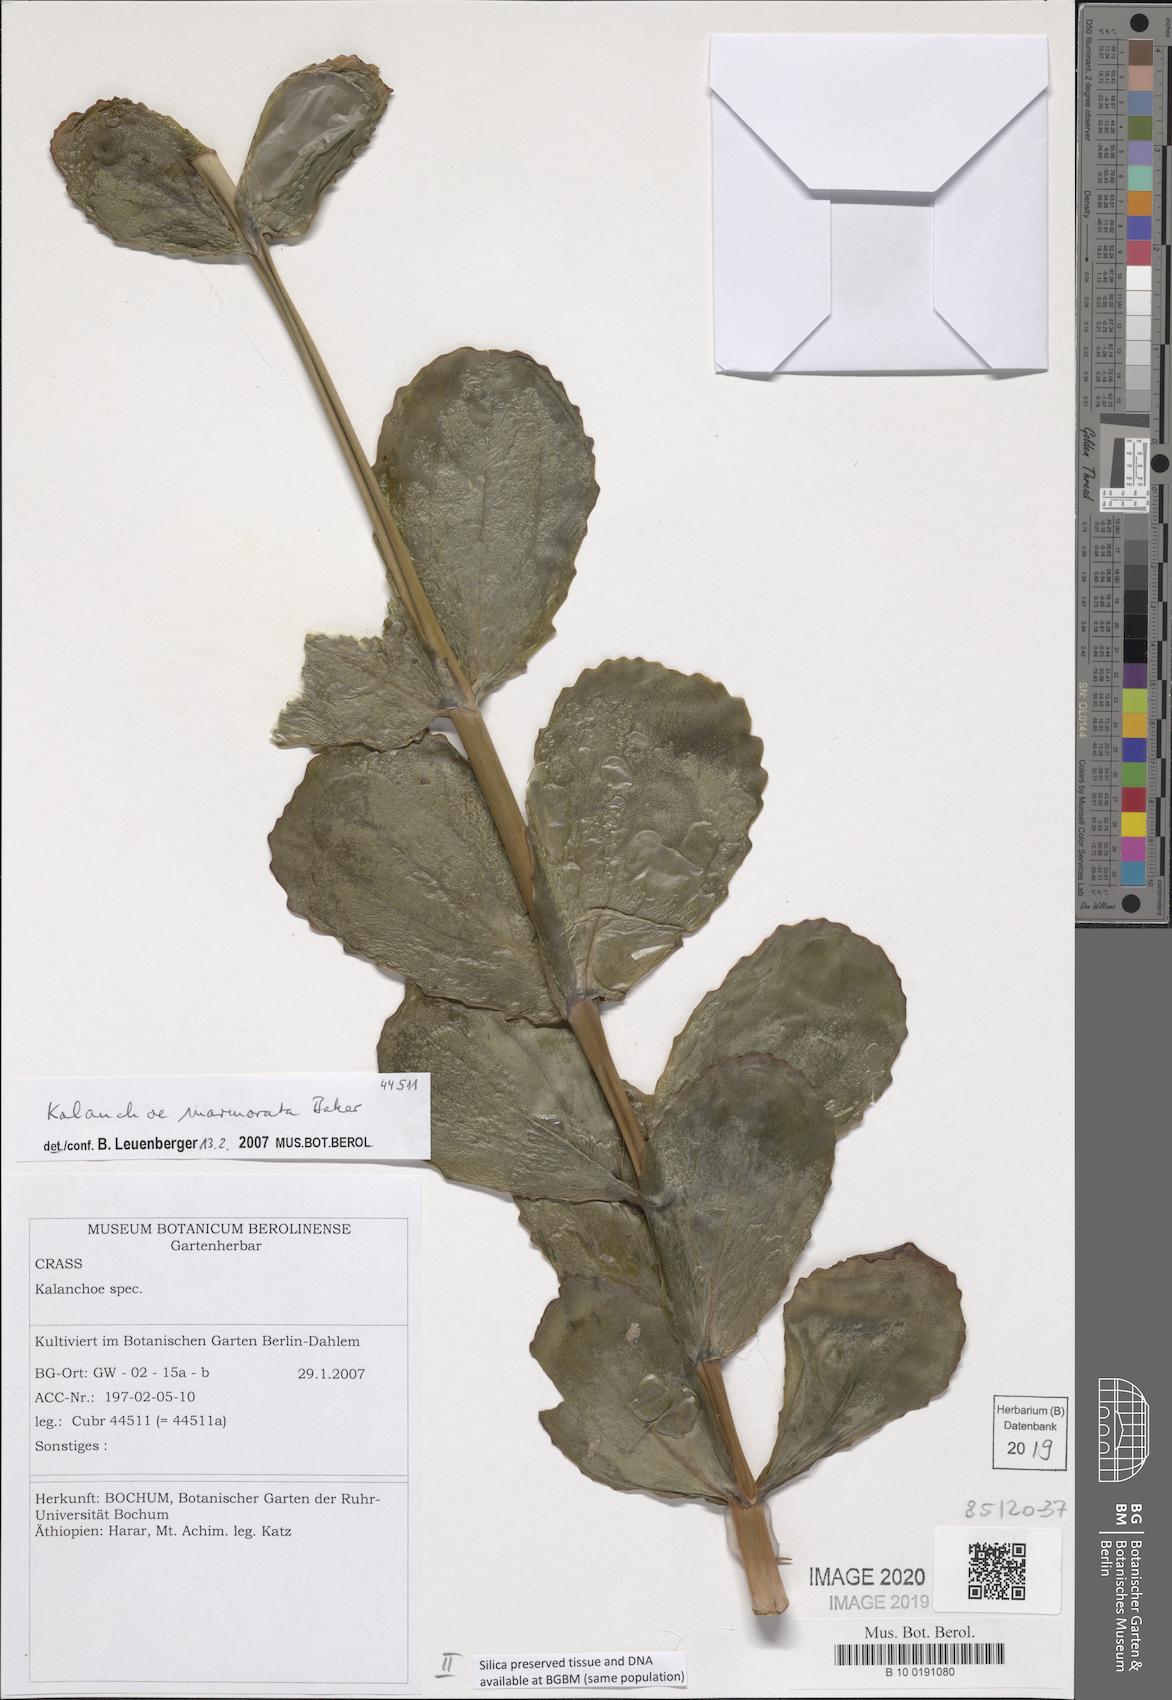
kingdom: Plantae
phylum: Tracheophyta
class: Magnoliopsida
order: Saxifragales
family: Crassulaceae
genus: Kalanchoe
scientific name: Kalanchoe marmorata
